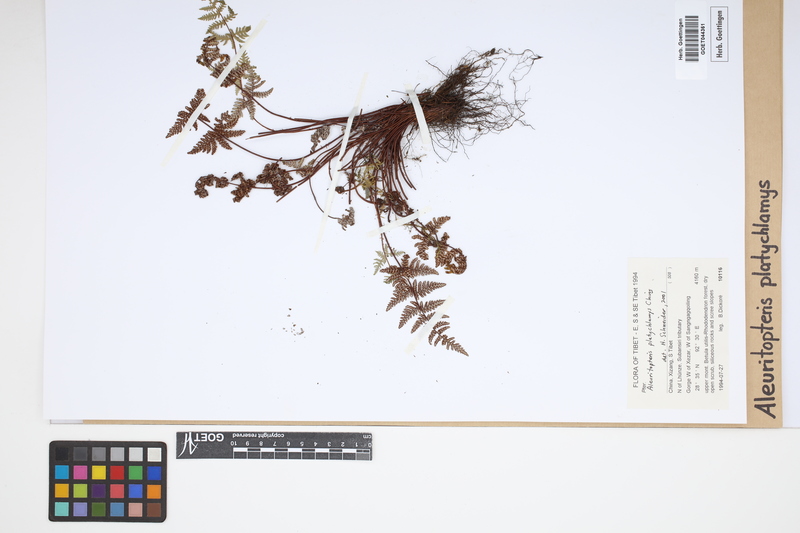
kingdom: Plantae
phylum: Tracheophyta
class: Polypodiopsida
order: Polypodiales
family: Pteridaceae
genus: Aleuritopteris
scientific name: Aleuritopteris grisea
